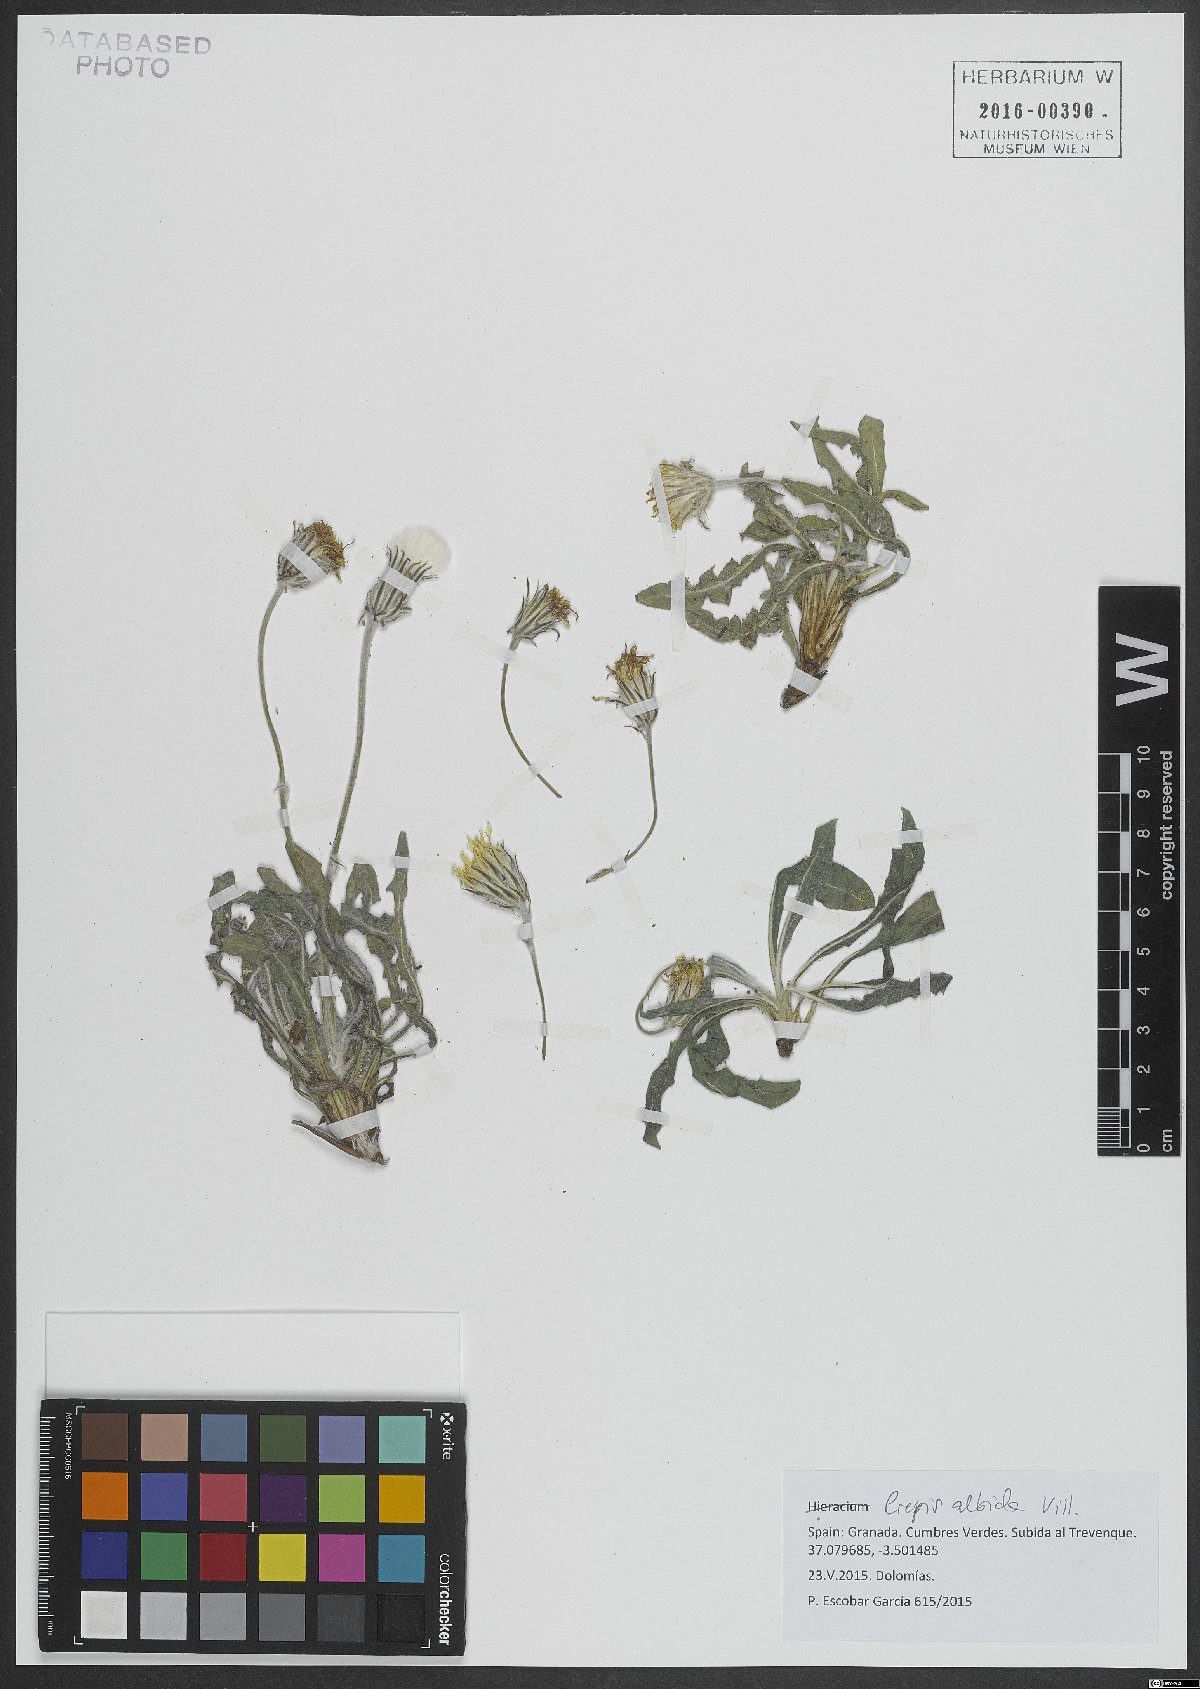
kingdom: Plantae
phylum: Tracheophyta
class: Magnoliopsida
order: Asterales
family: Asteraceae
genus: Crepis
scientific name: Crepis albida
